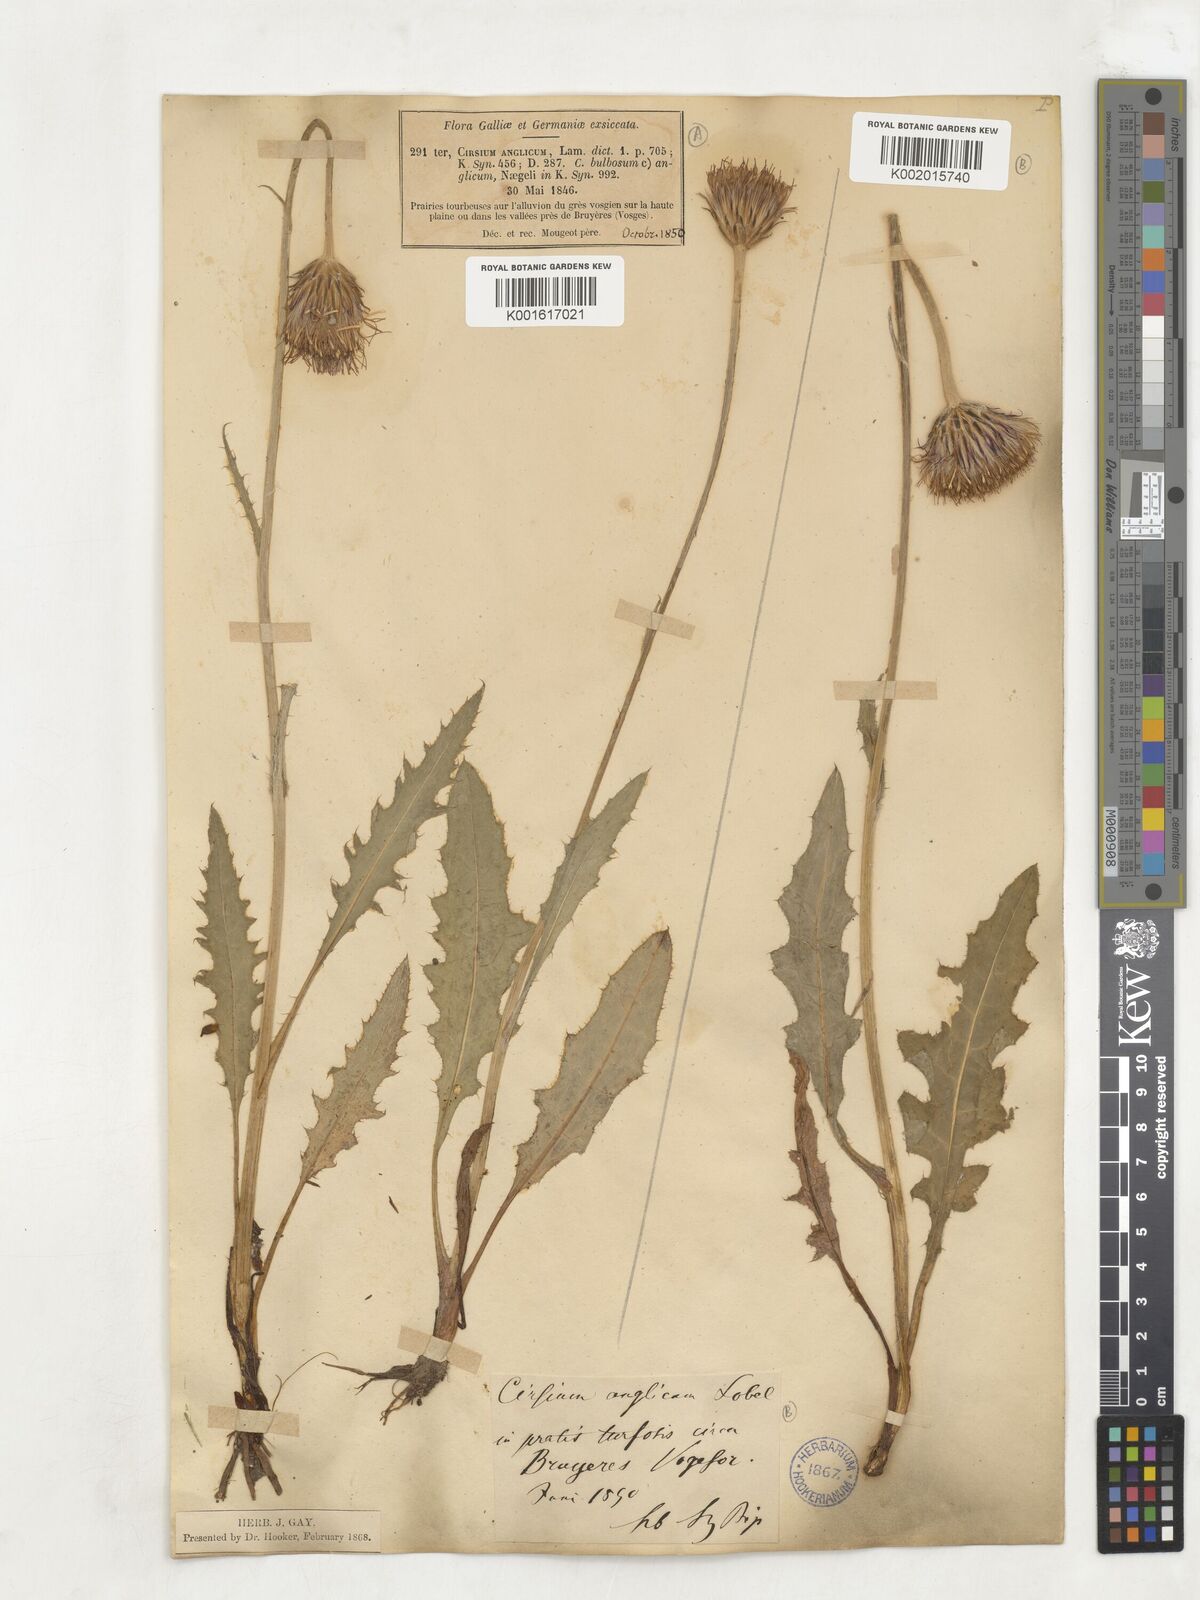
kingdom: Plantae
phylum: Tracheophyta
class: Magnoliopsida
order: Asterales
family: Asteraceae
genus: Cirsium
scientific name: Cirsium
